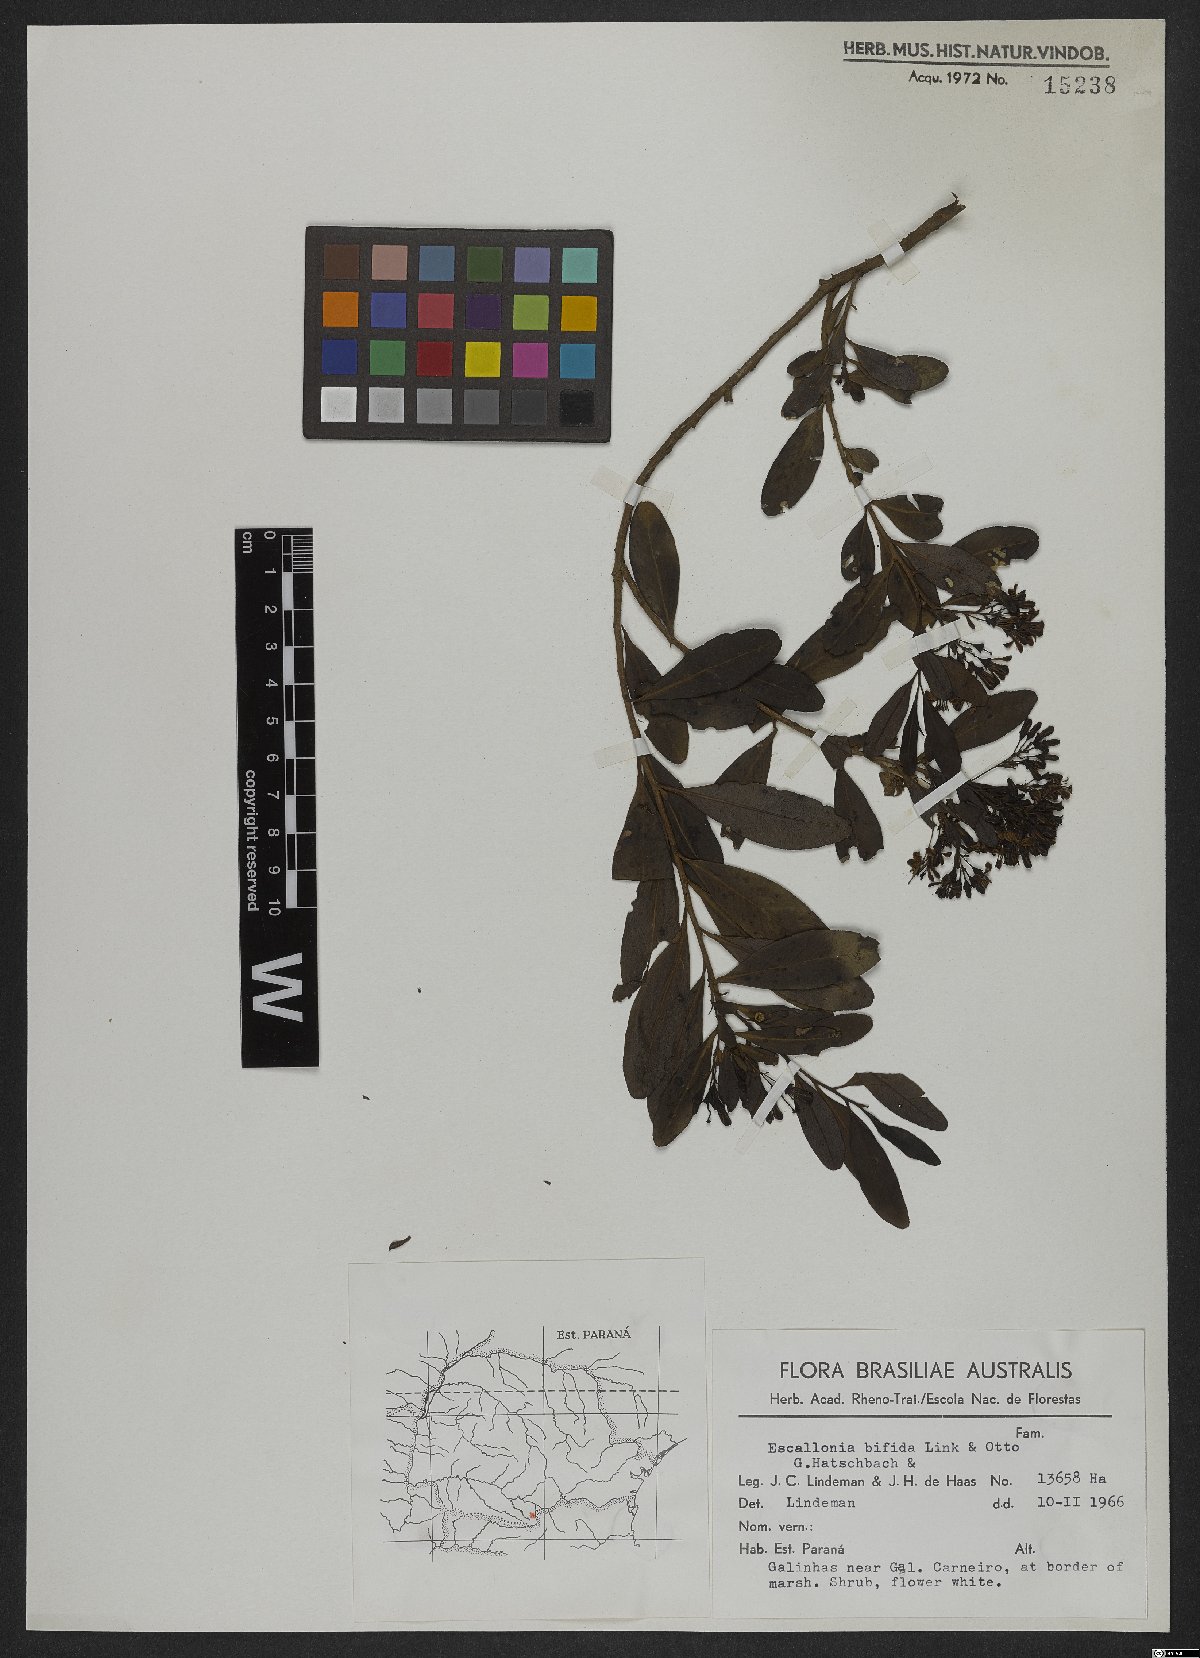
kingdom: Plantae
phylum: Tracheophyta
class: Magnoliopsida
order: Escalloniales
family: Escalloniaceae
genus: Escallonia
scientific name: Escallonia bifida
